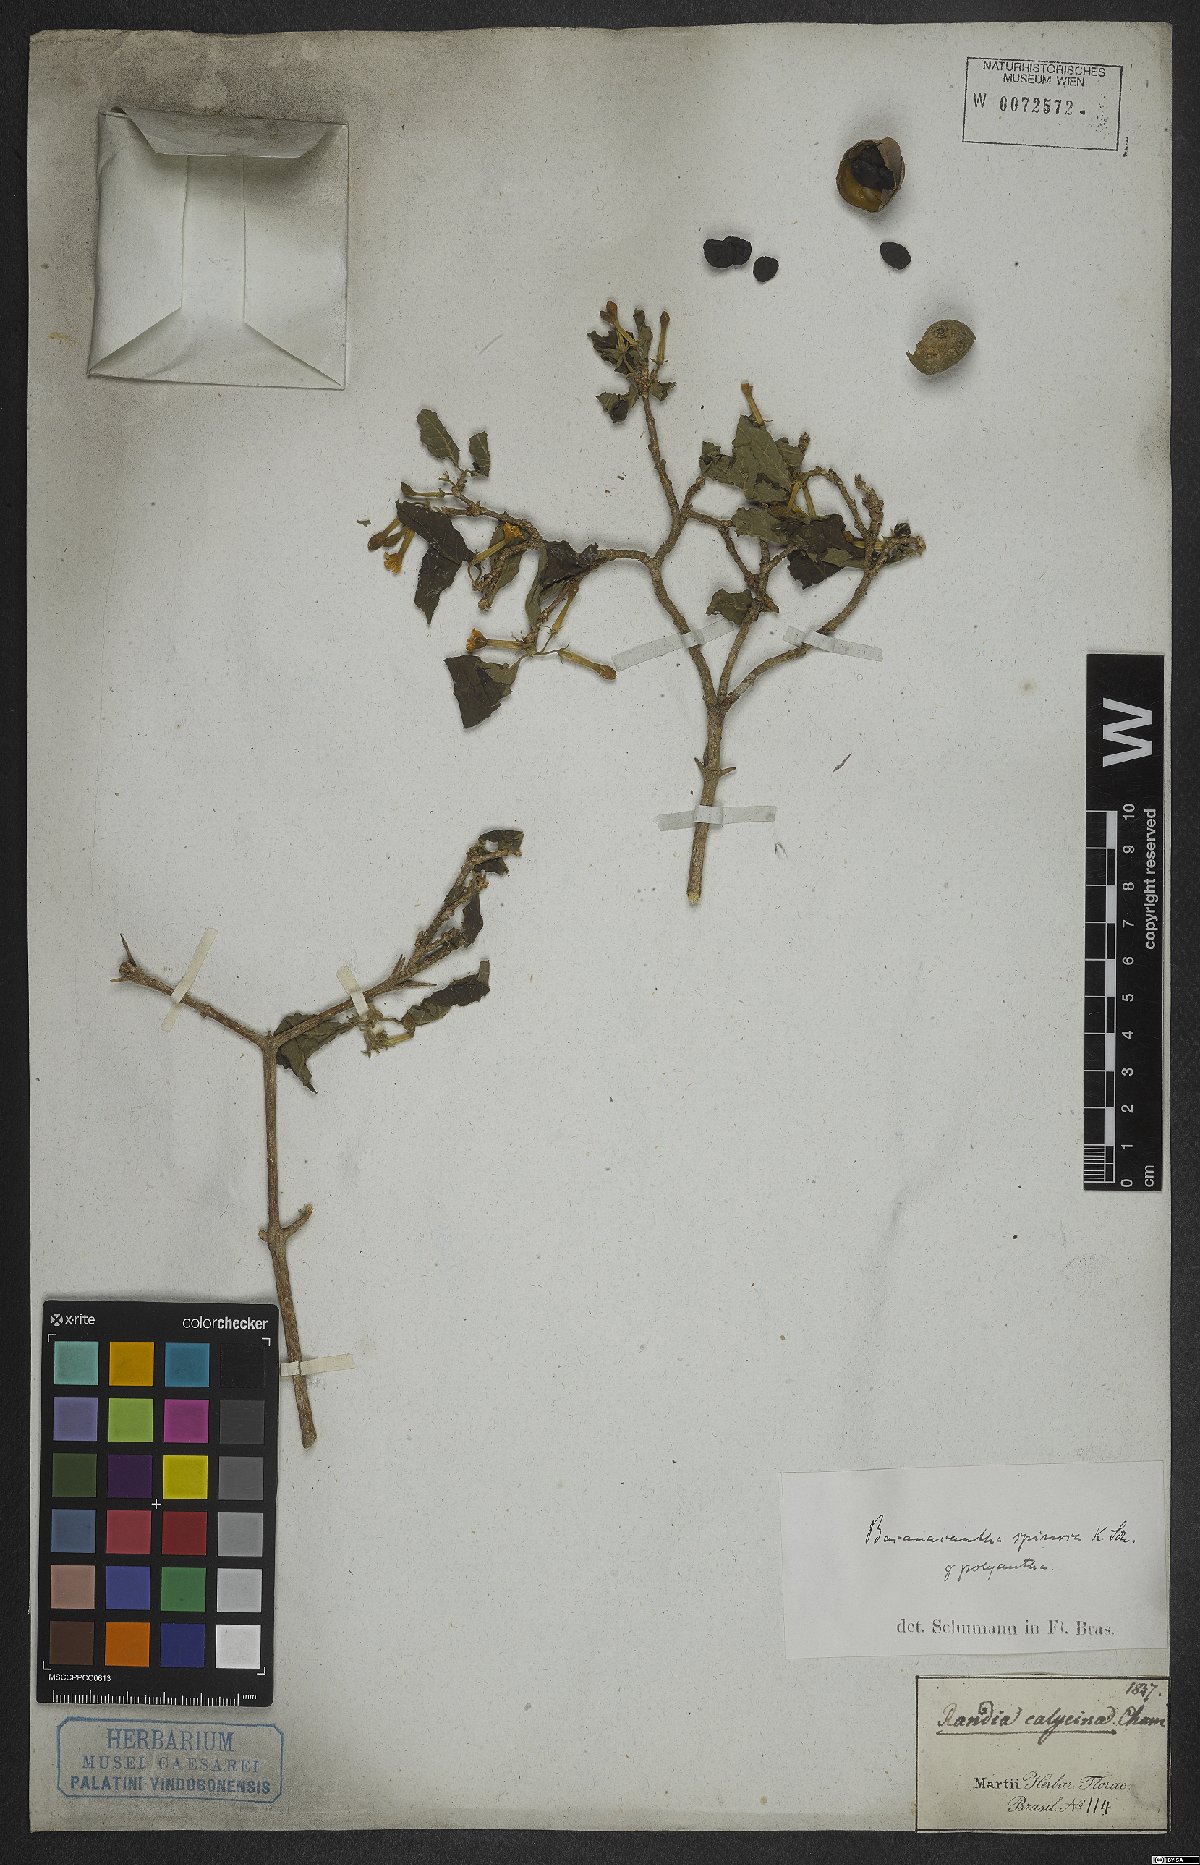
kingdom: Plantae
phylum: Tracheophyta
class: Magnoliopsida
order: Gentianales
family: Rubiaceae
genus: Randia
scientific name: Randia armata
